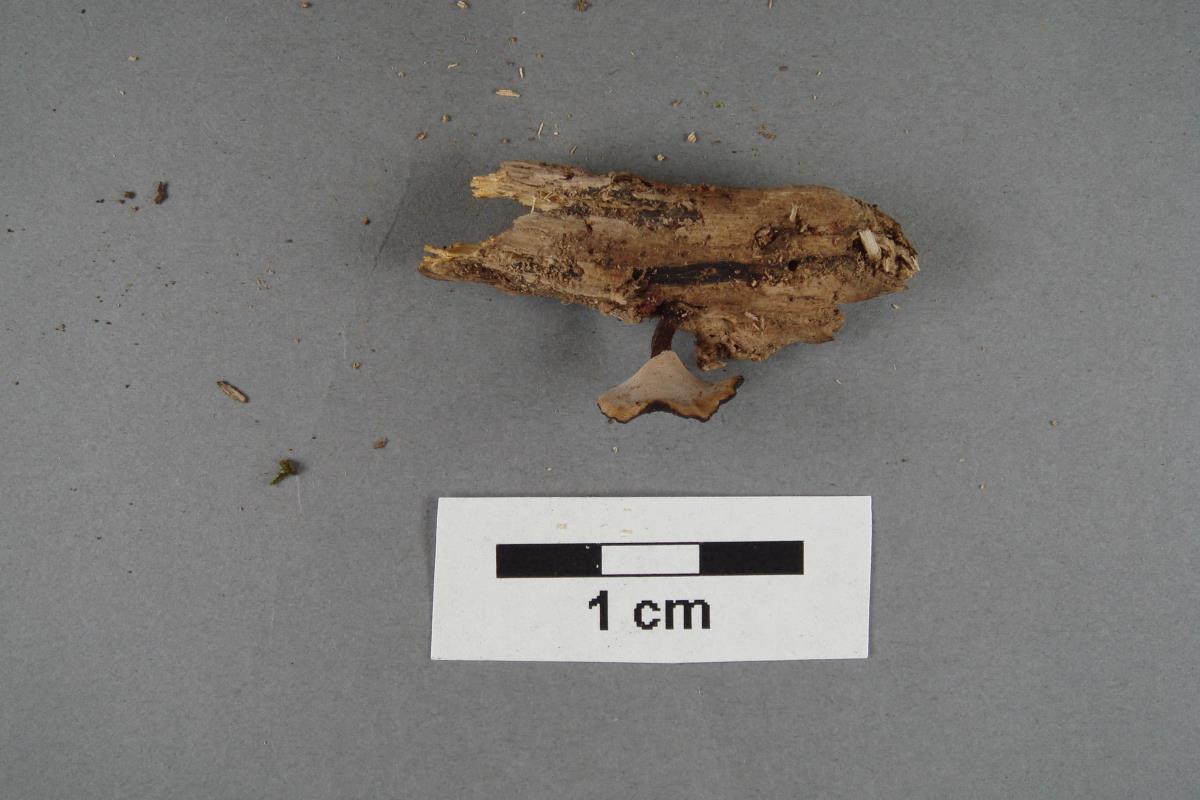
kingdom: Fungi
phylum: Basidiomycota
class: Agaricomycetes
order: Polyporales
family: Polyporaceae
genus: Polyporus
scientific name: Polyporus
